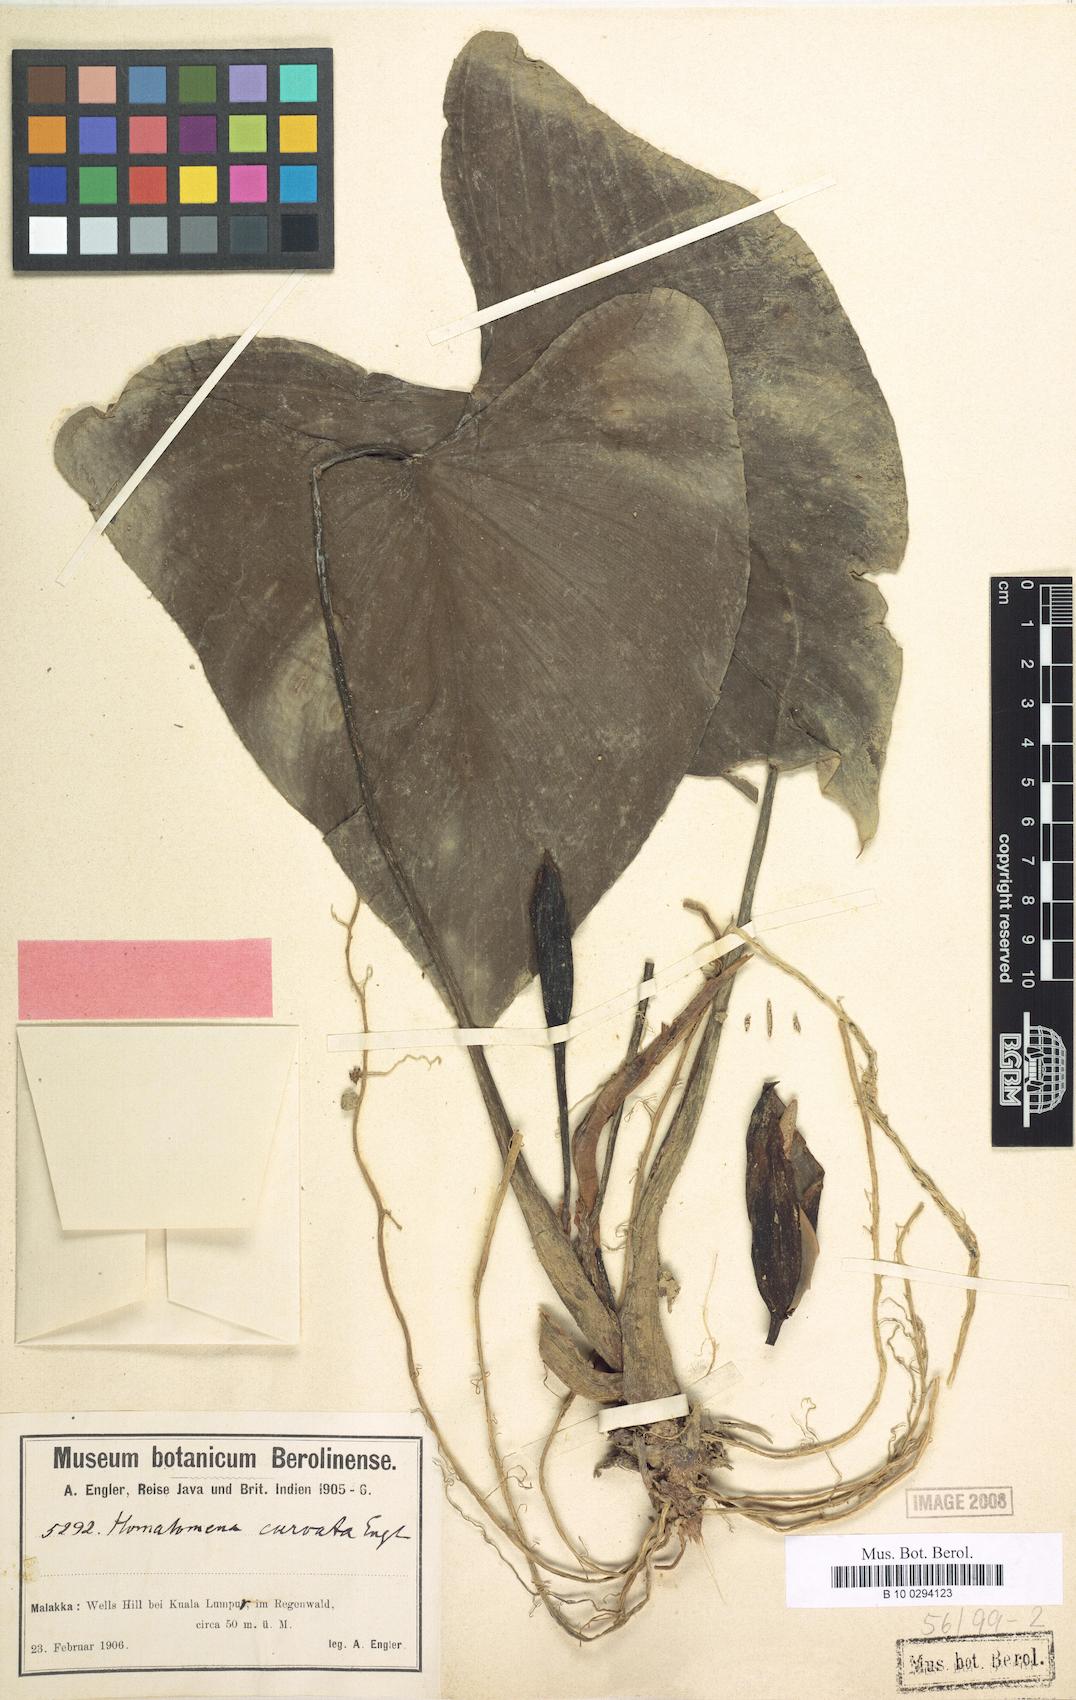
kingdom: Plantae
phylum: Tracheophyta
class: Liliopsida
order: Alismatales
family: Araceae
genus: Homalomena
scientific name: Homalomena curvata
